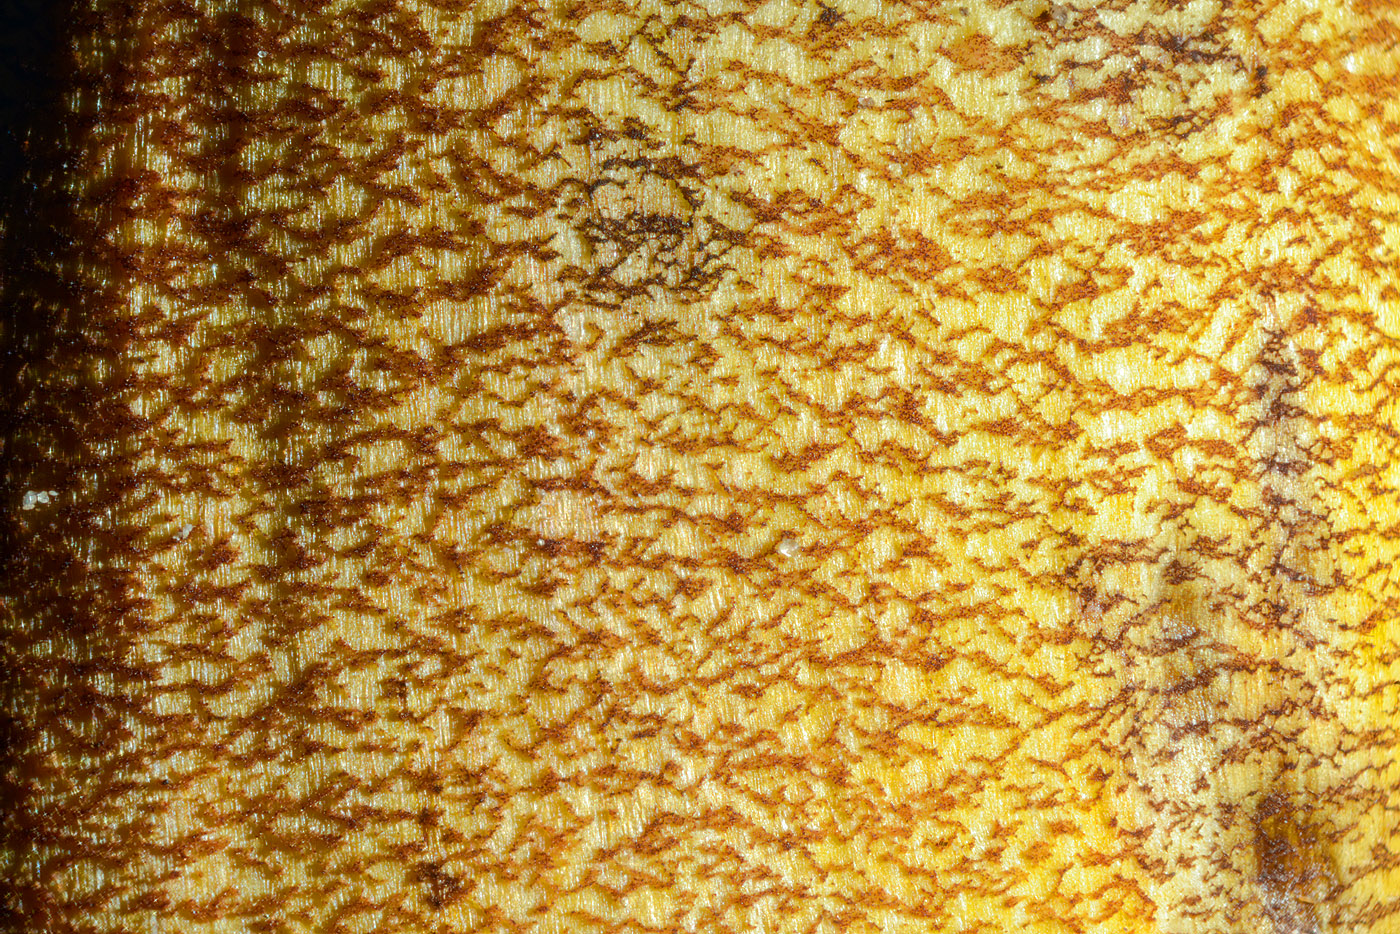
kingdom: Fungi
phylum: Basidiomycota
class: Agaricomycetes
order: Boletales
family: Boletaceae
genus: Neoboletus
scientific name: Neoboletus xanthopus
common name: finprikket indigorørhat
